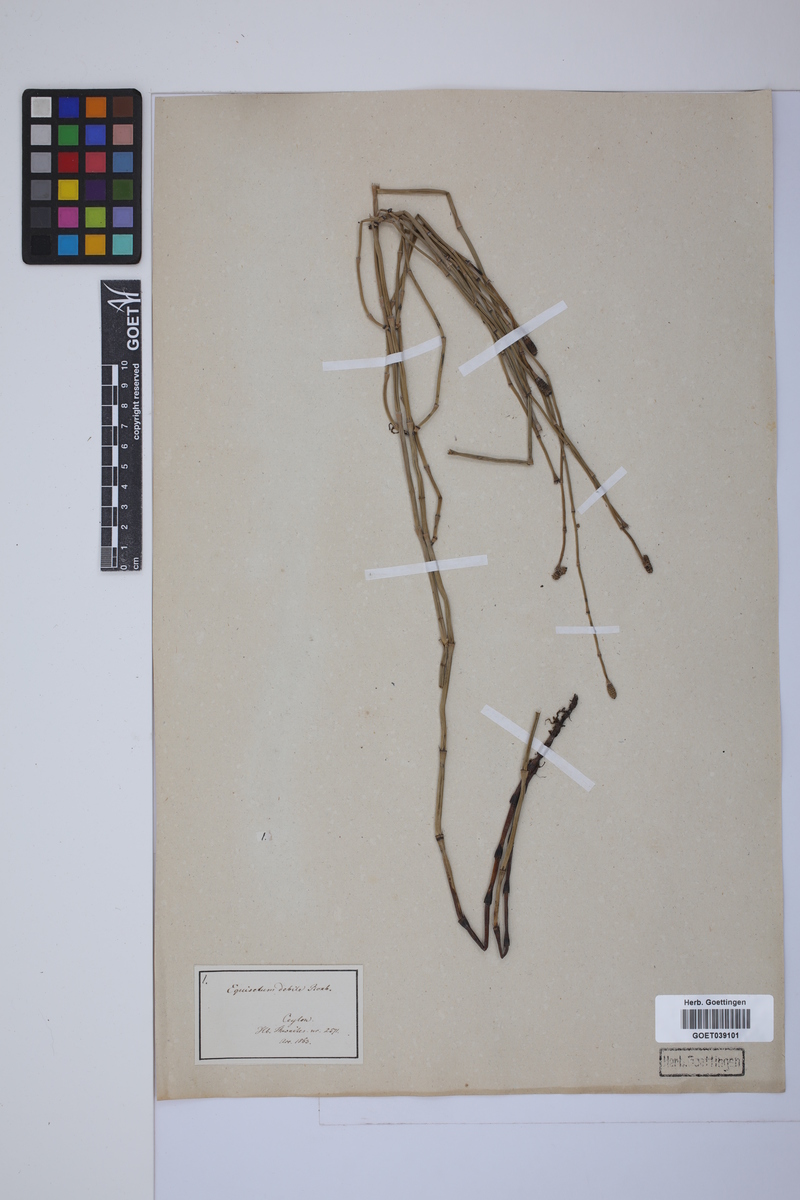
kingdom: Plantae
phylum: Tracheophyta
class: Polypodiopsida
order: Equisetales
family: Equisetaceae
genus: Equisetum
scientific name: Equisetum ramosissimum
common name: Branched horsetail
